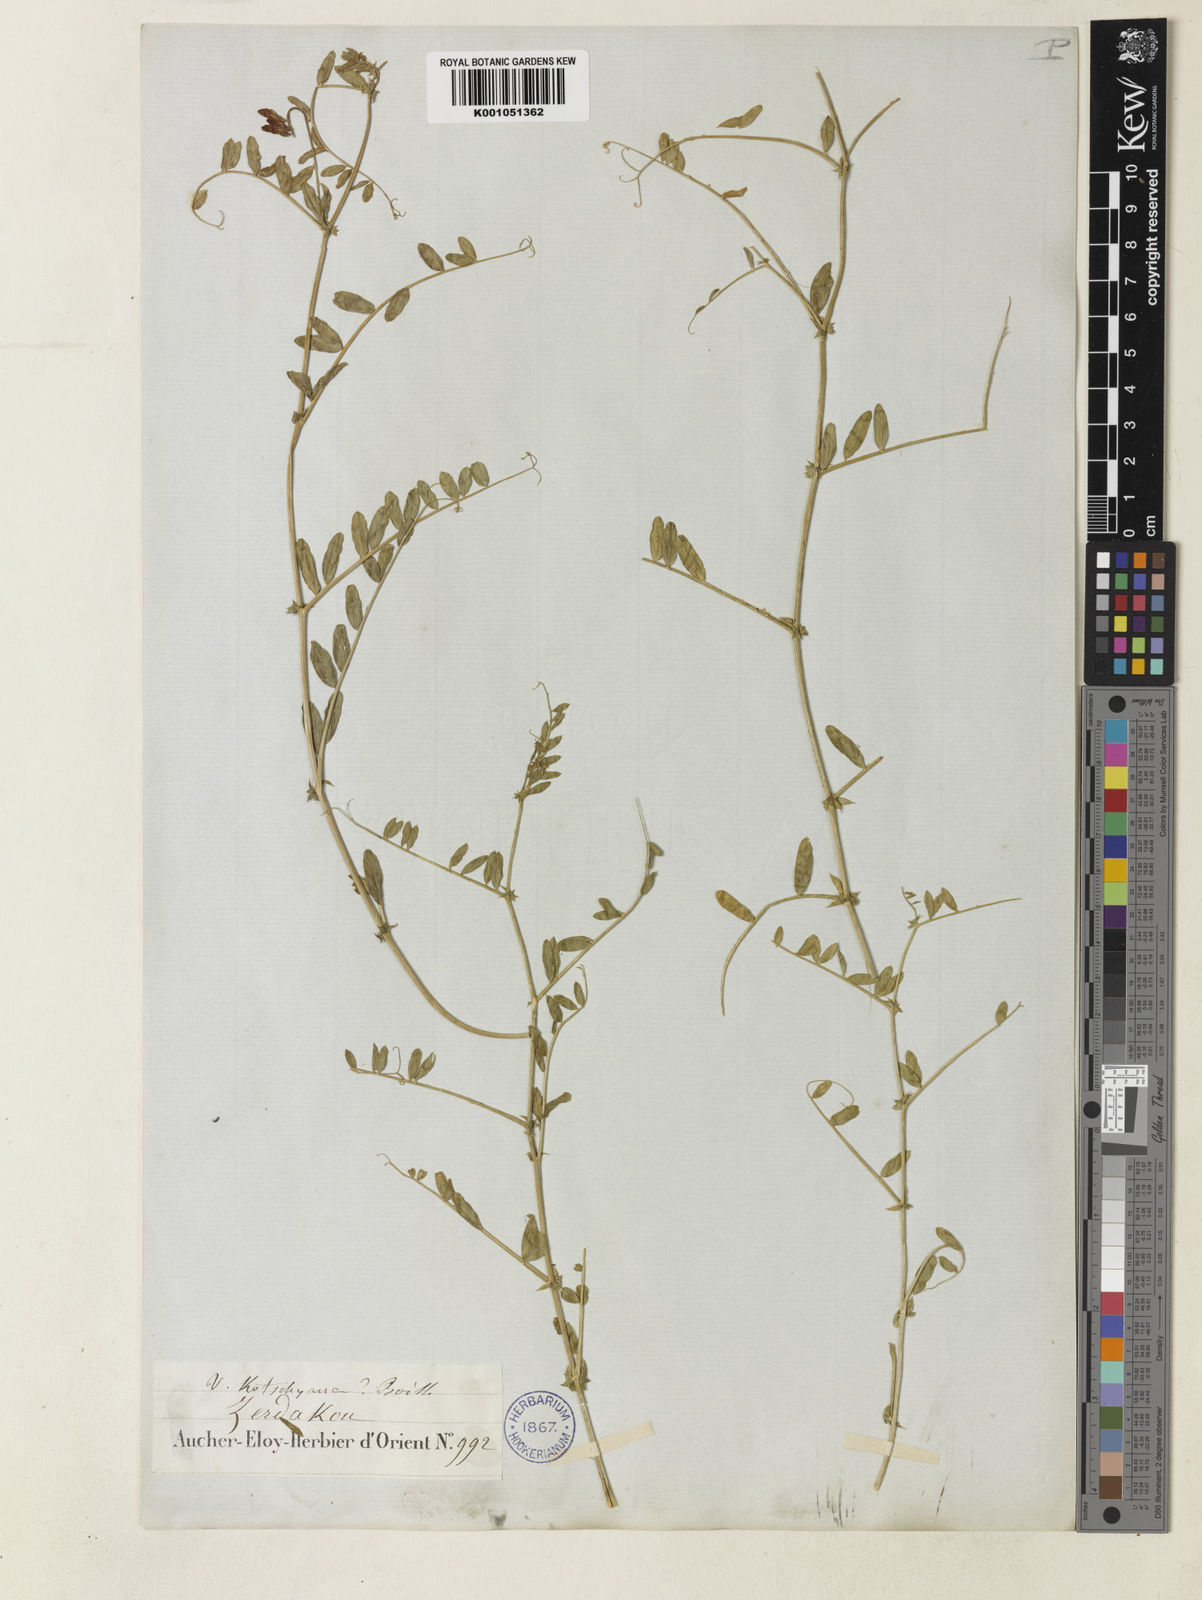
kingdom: Plantae
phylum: Tracheophyta
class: Magnoliopsida
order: Fabales
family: Fabaceae
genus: Vicia
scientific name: Vicia kotschyana
